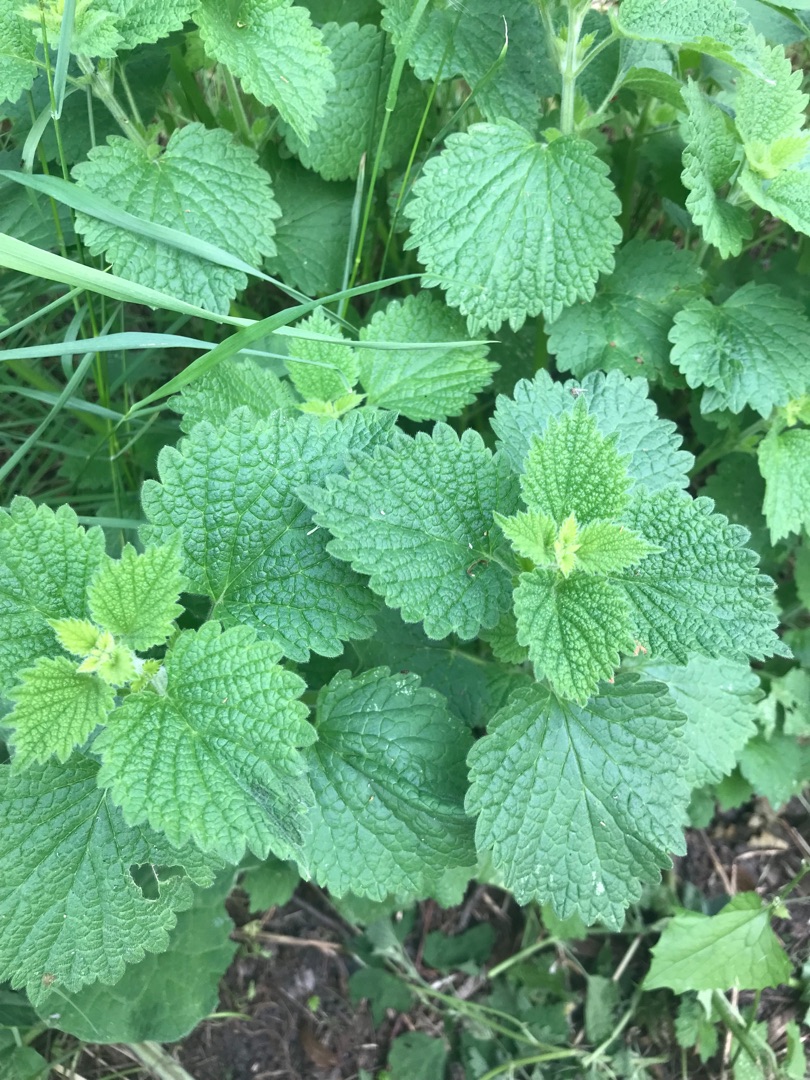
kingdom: Plantae
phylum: Tracheophyta
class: Magnoliopsida
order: Lamiales
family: Lamiaceae
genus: Ballota
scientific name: Ballota nigra
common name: Tandbæger
